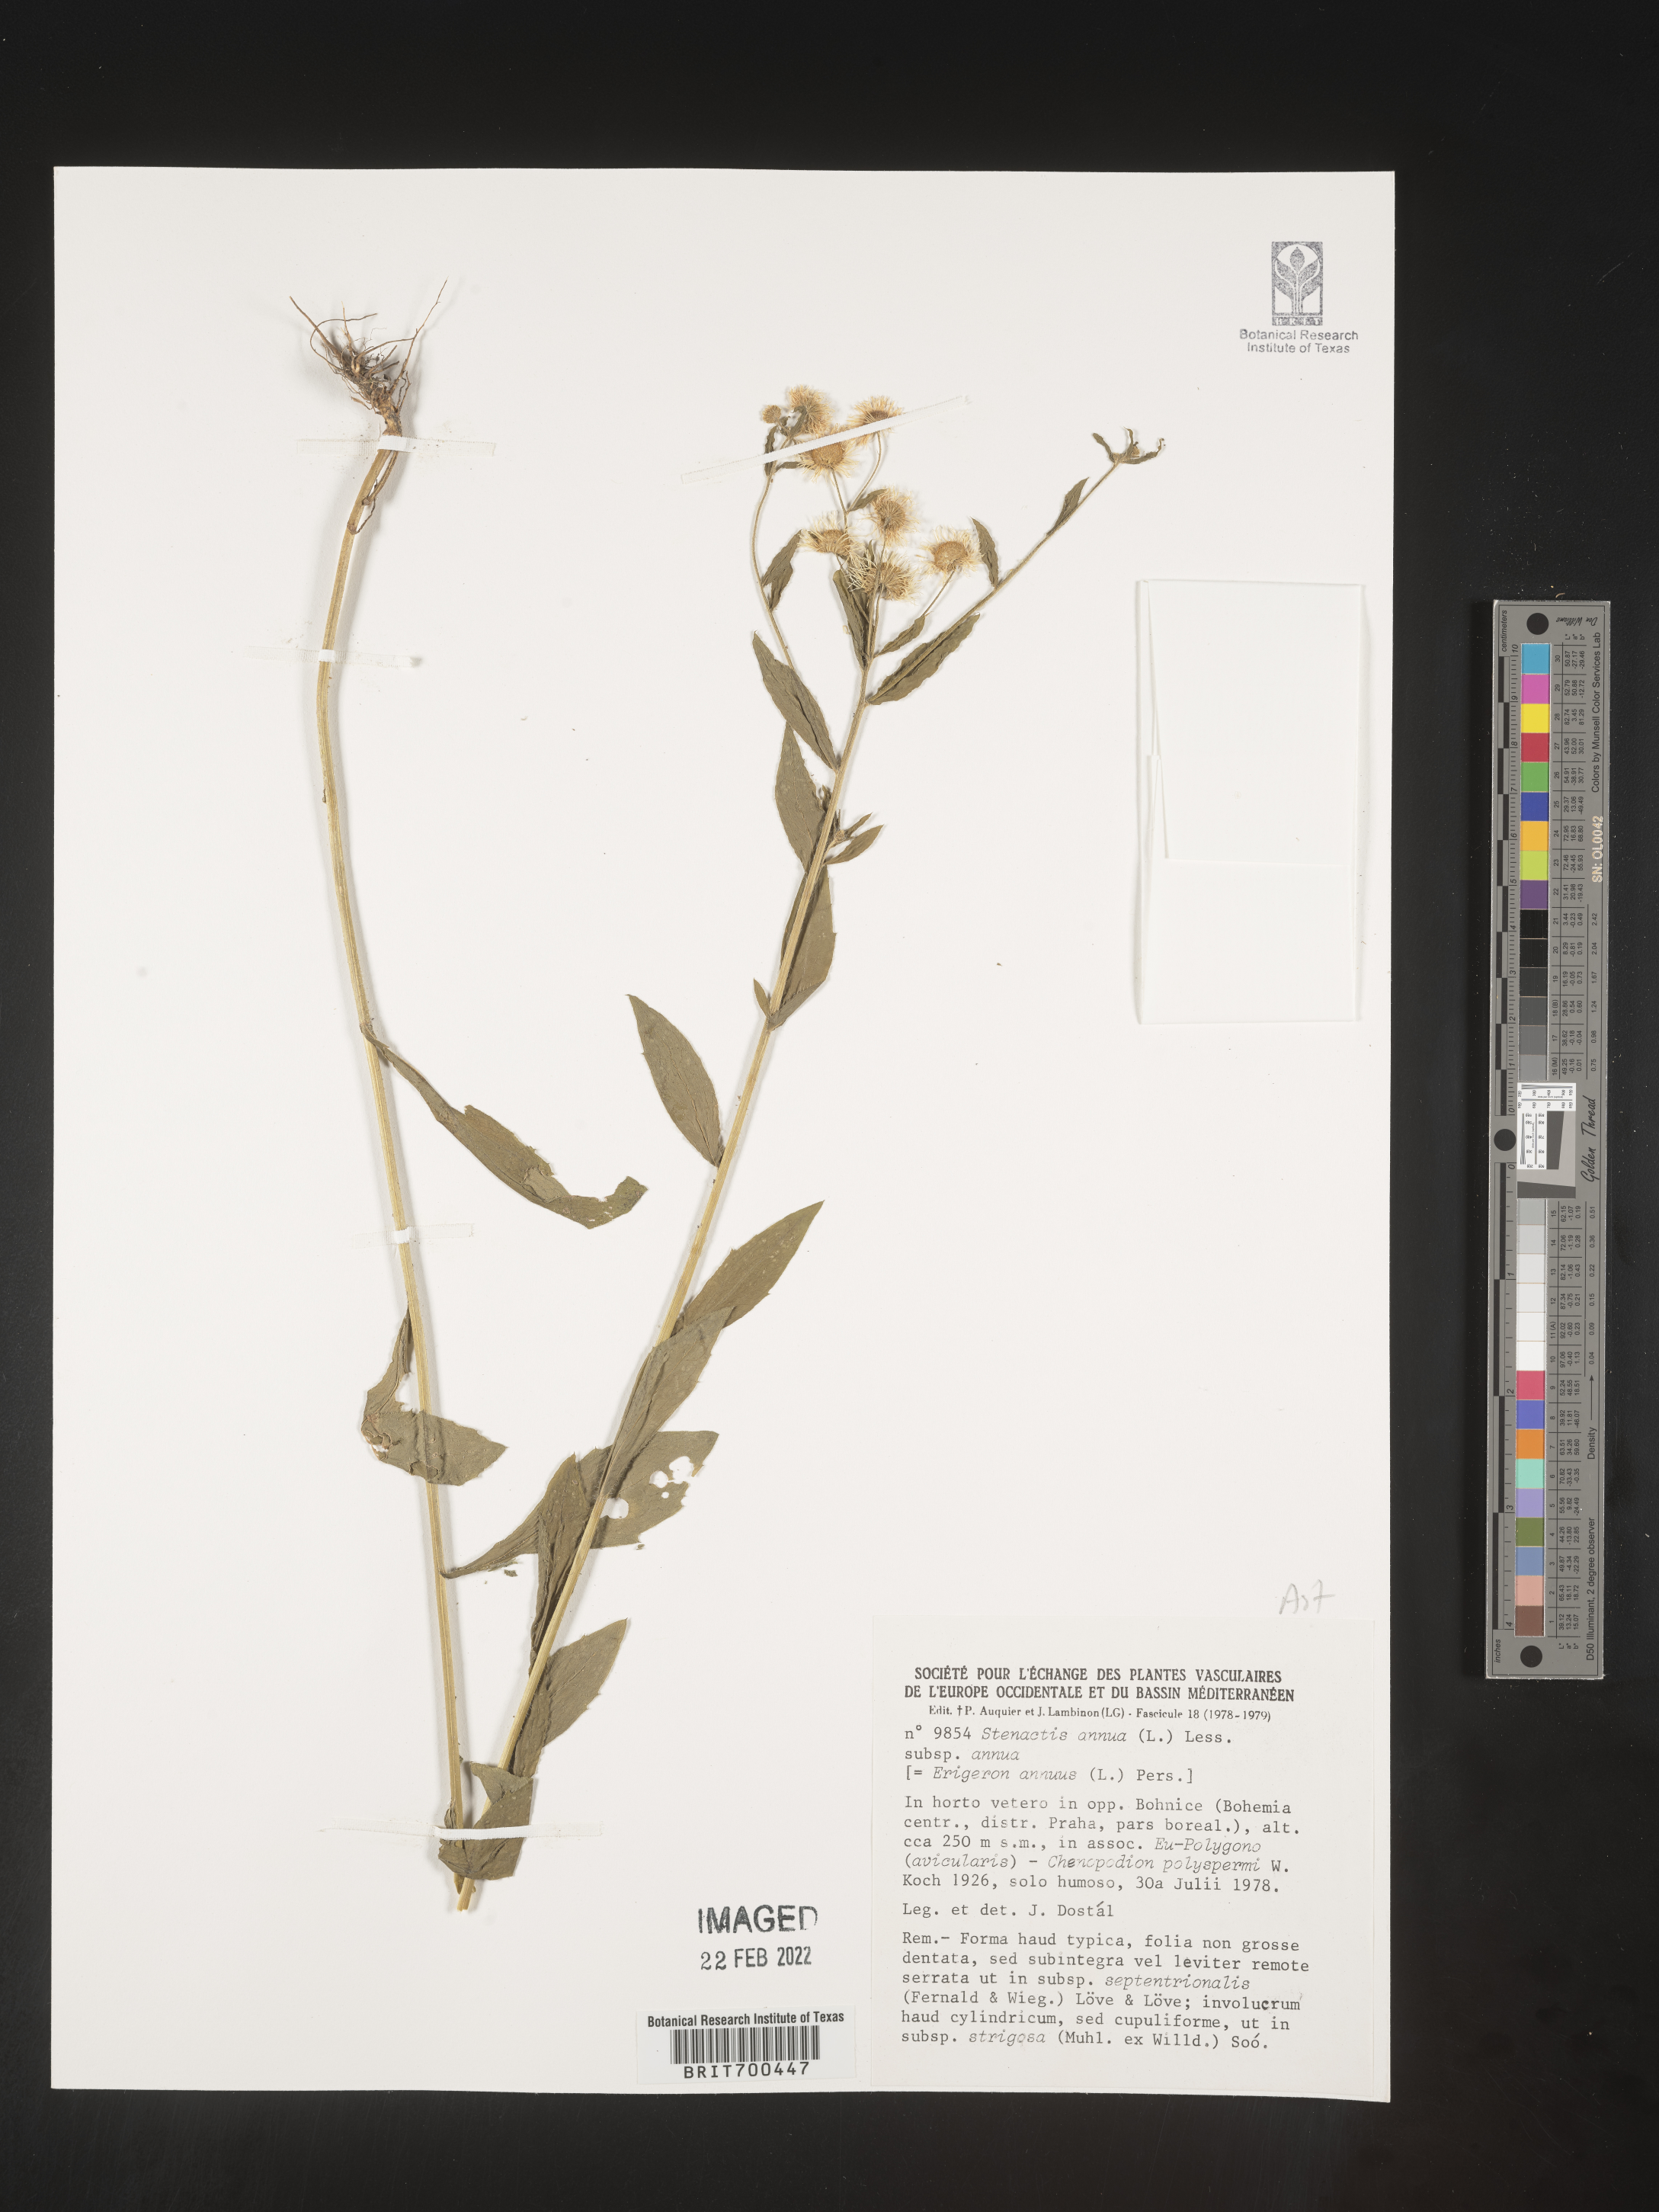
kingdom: Plantae
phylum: Tracheophyta
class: Magnoliopsida
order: Asterales
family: Asteraceae
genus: Erigeron
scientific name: Erigeron
